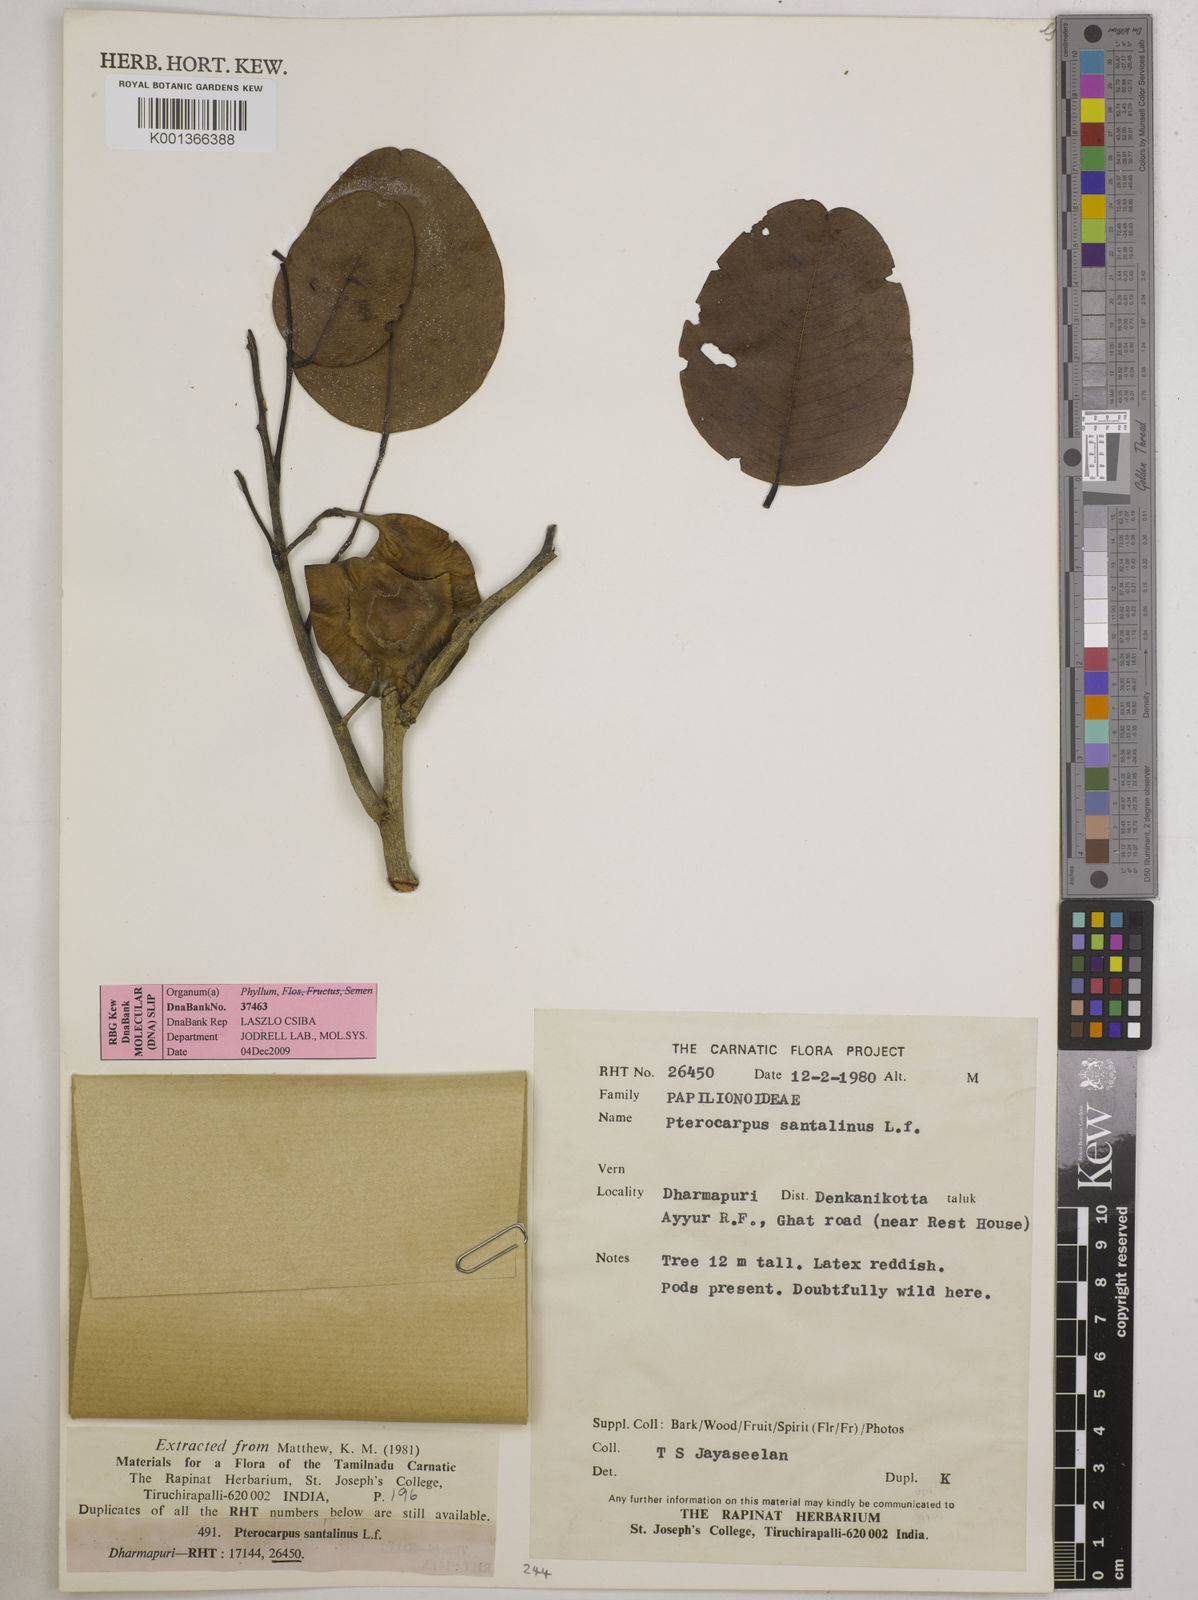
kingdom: Plantae
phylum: Tracheophyta
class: Magnoliopsida
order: Fabales
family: Fabaceae
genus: Pterocarpus
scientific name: Pterocarpus santalinus
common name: Red sanders
